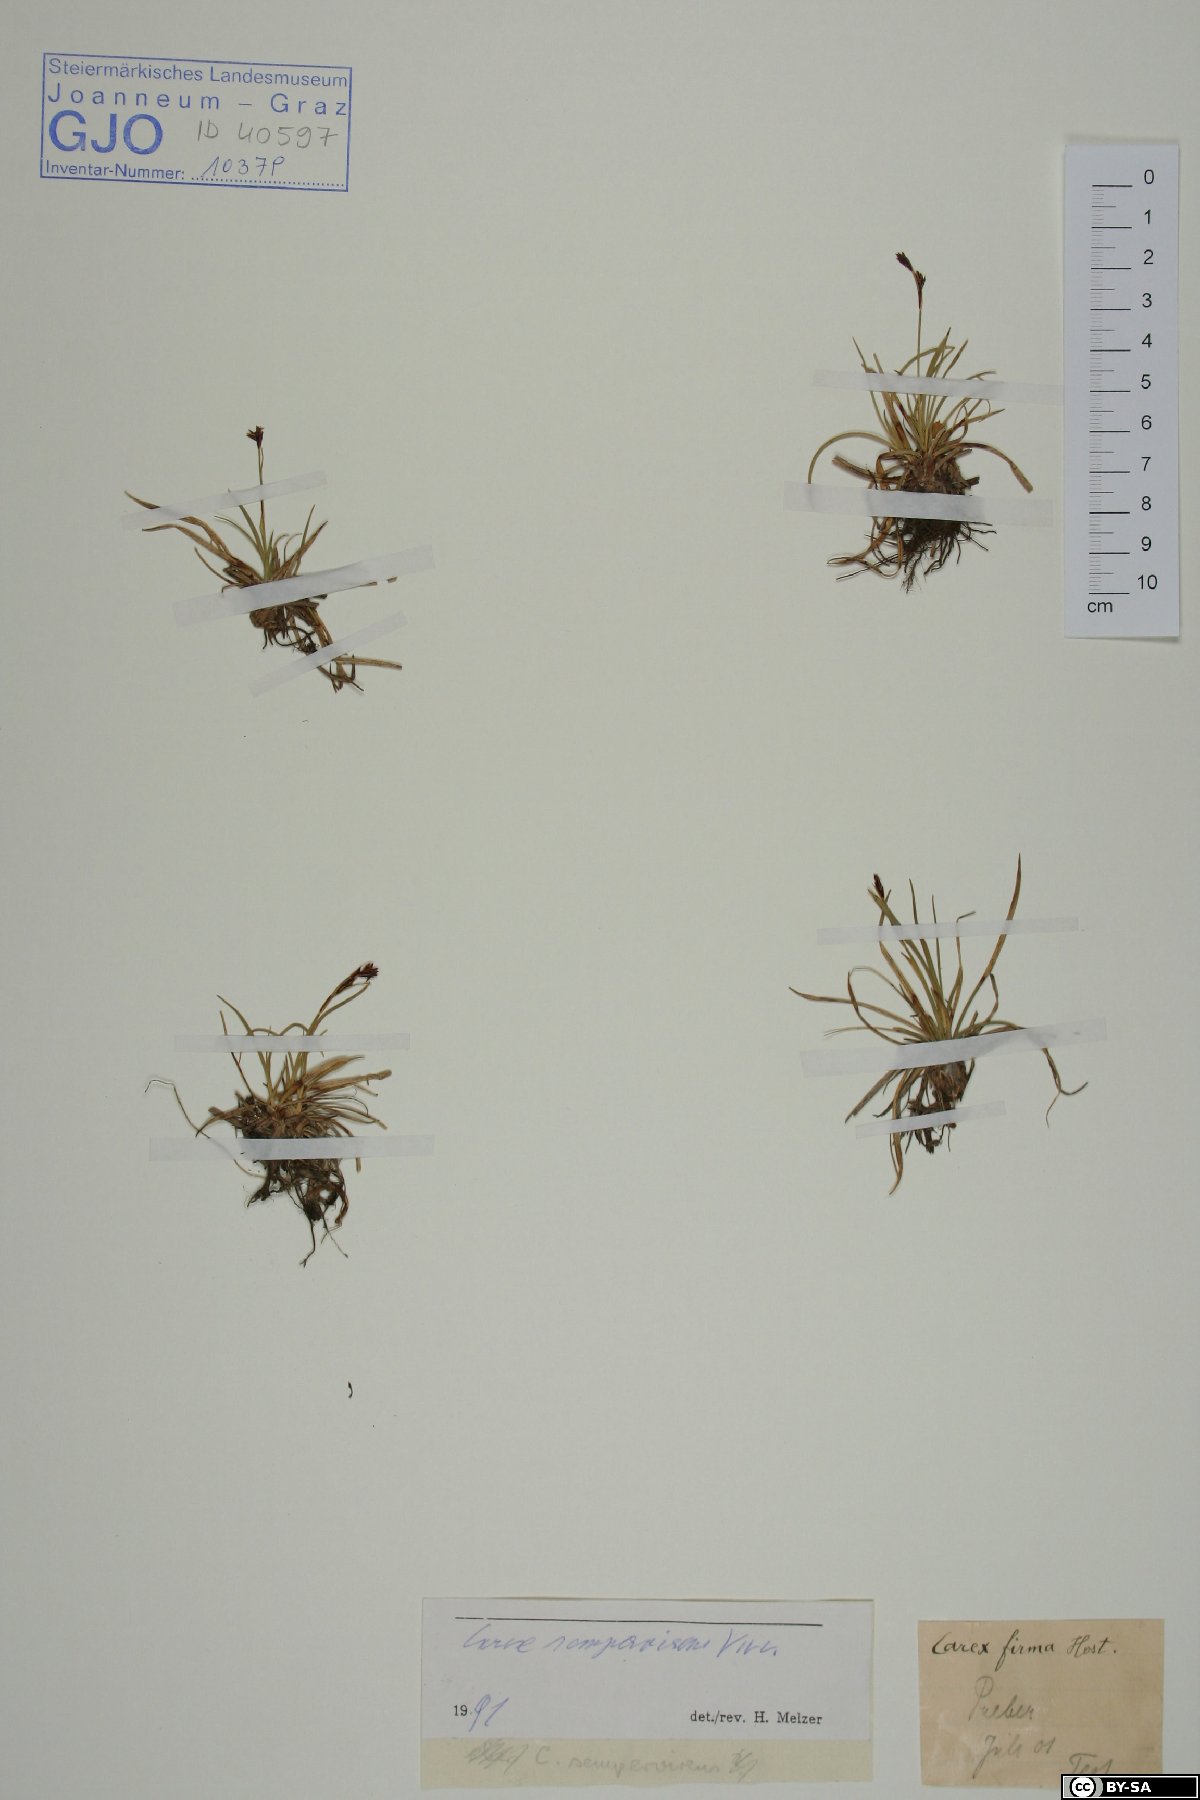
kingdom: Plantae
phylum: Tracheophyta
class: Liliopsida
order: Poales
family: Cyperaceae
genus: Carex
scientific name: Carex sempervirens
